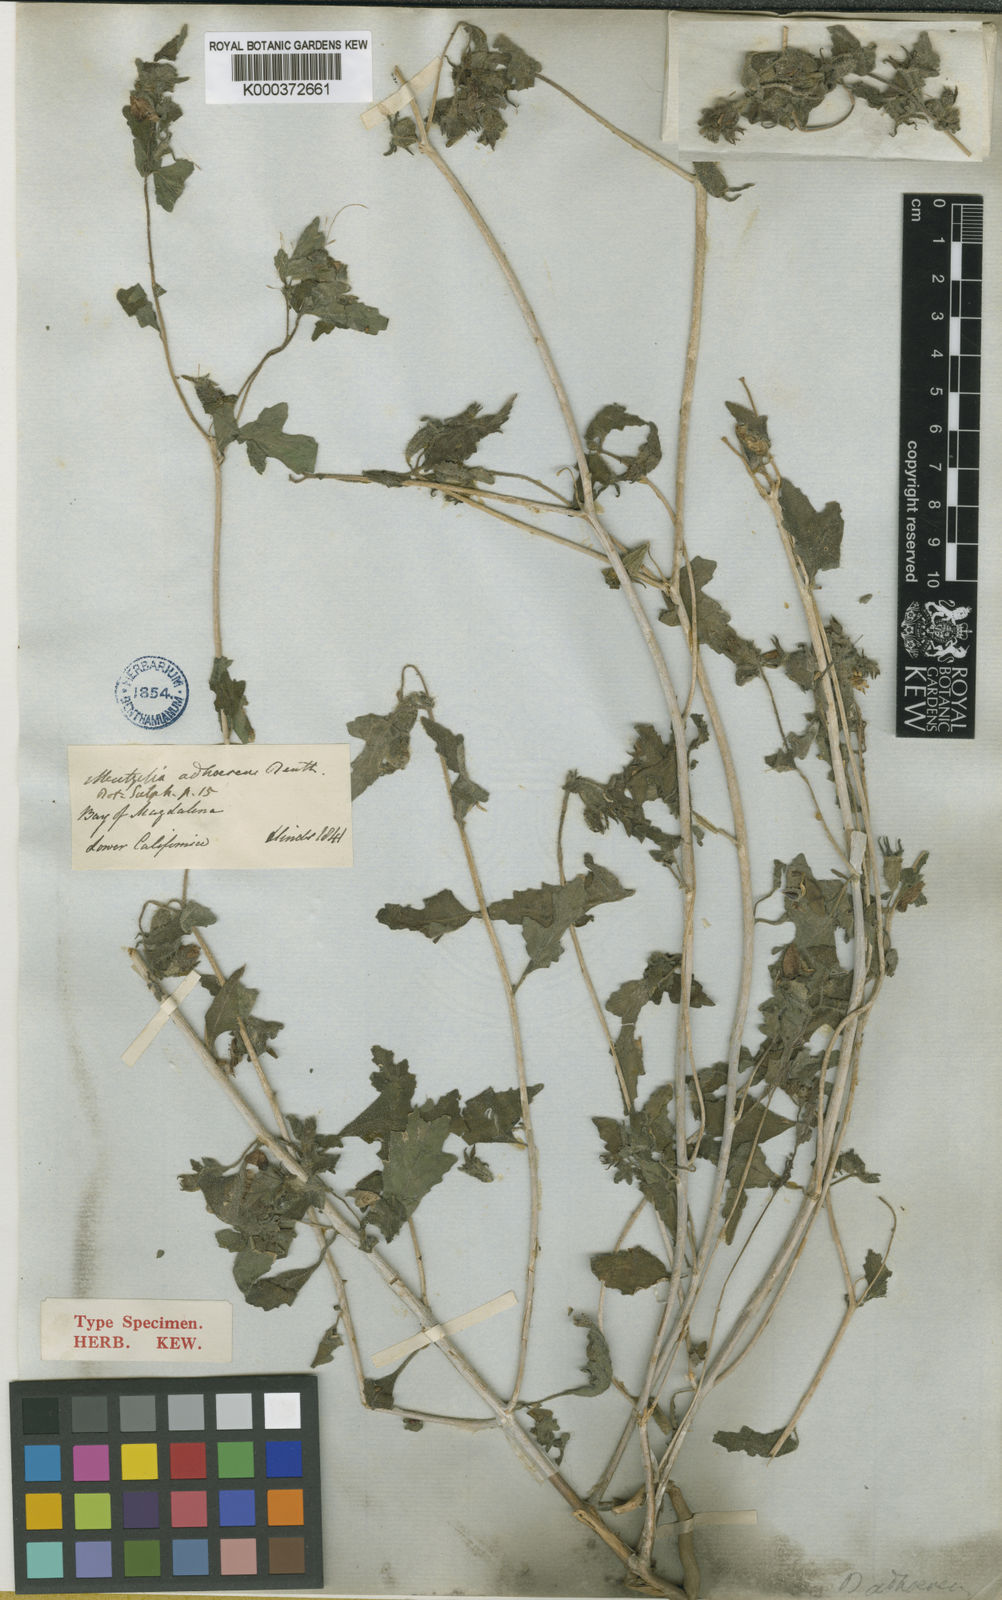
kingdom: Plantae
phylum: Tracheophyta
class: Magnoliopsida
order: Cornales
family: Loasaceae
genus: Mentzelia
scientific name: Mentzelia adhaerens
